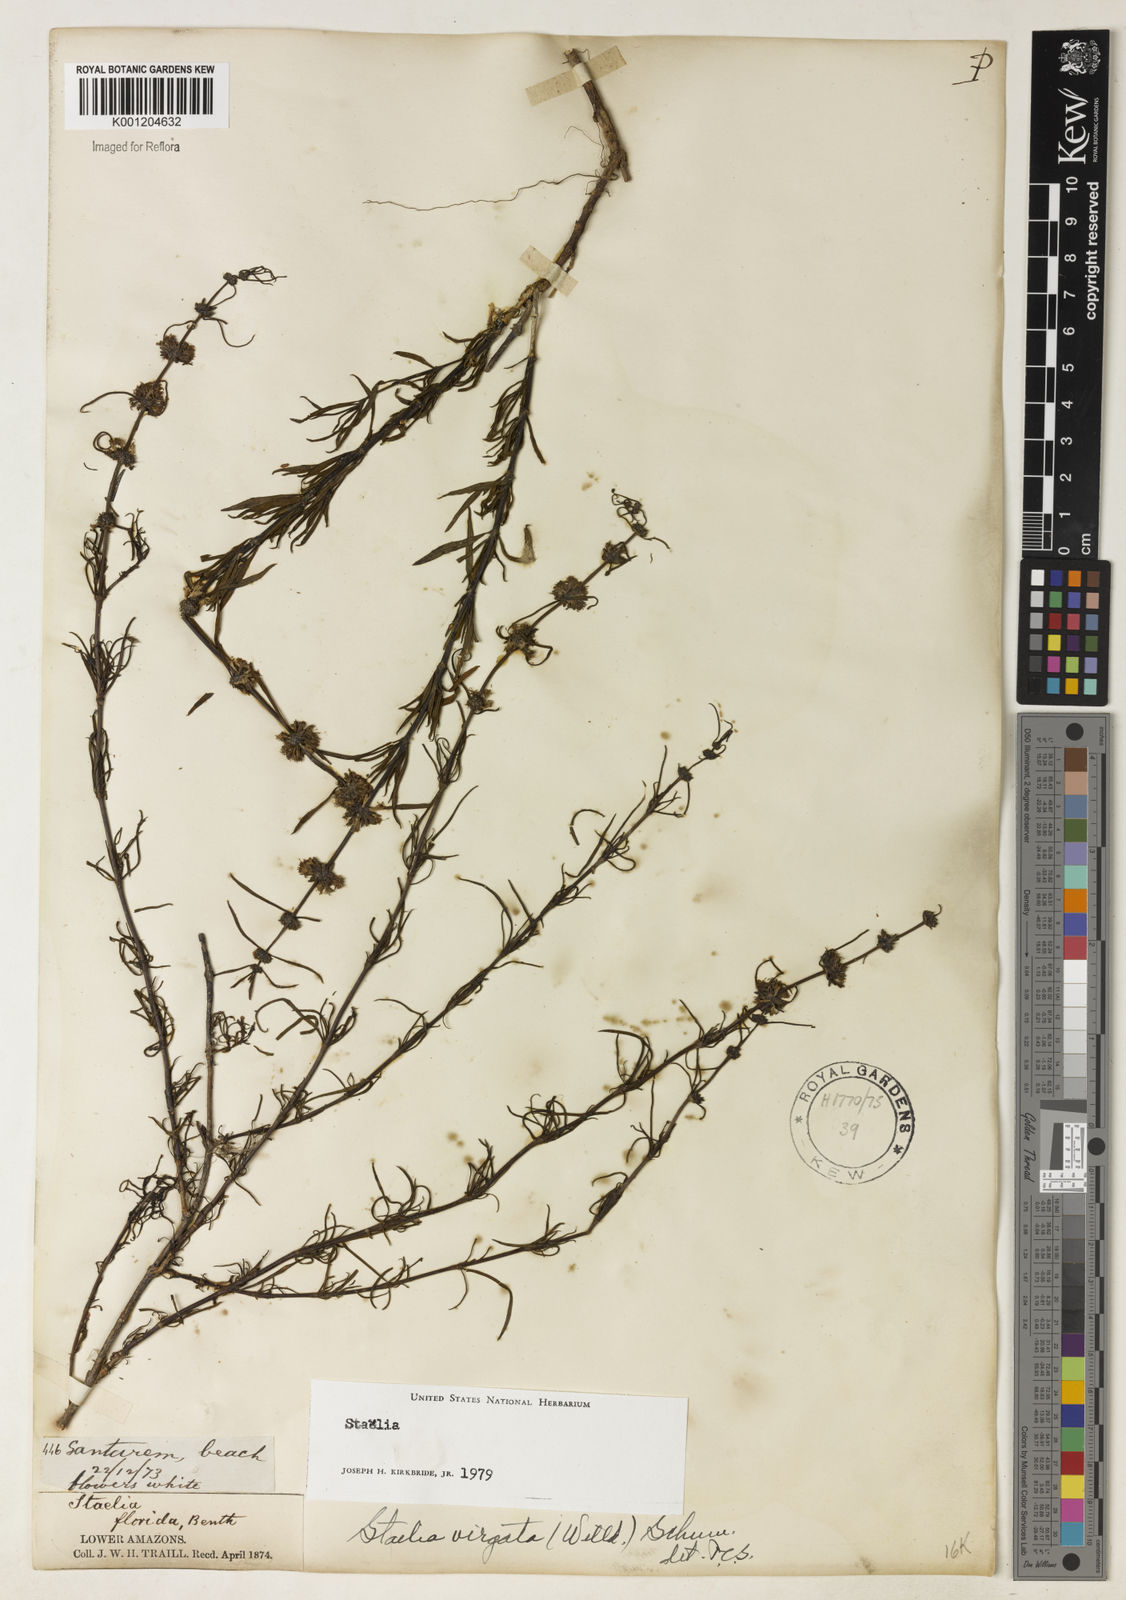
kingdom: Plantae
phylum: Tracheophyta
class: Magnoliopsida
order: Gentianales
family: Rubiaceae
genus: Staelia
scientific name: Staelia virgata
